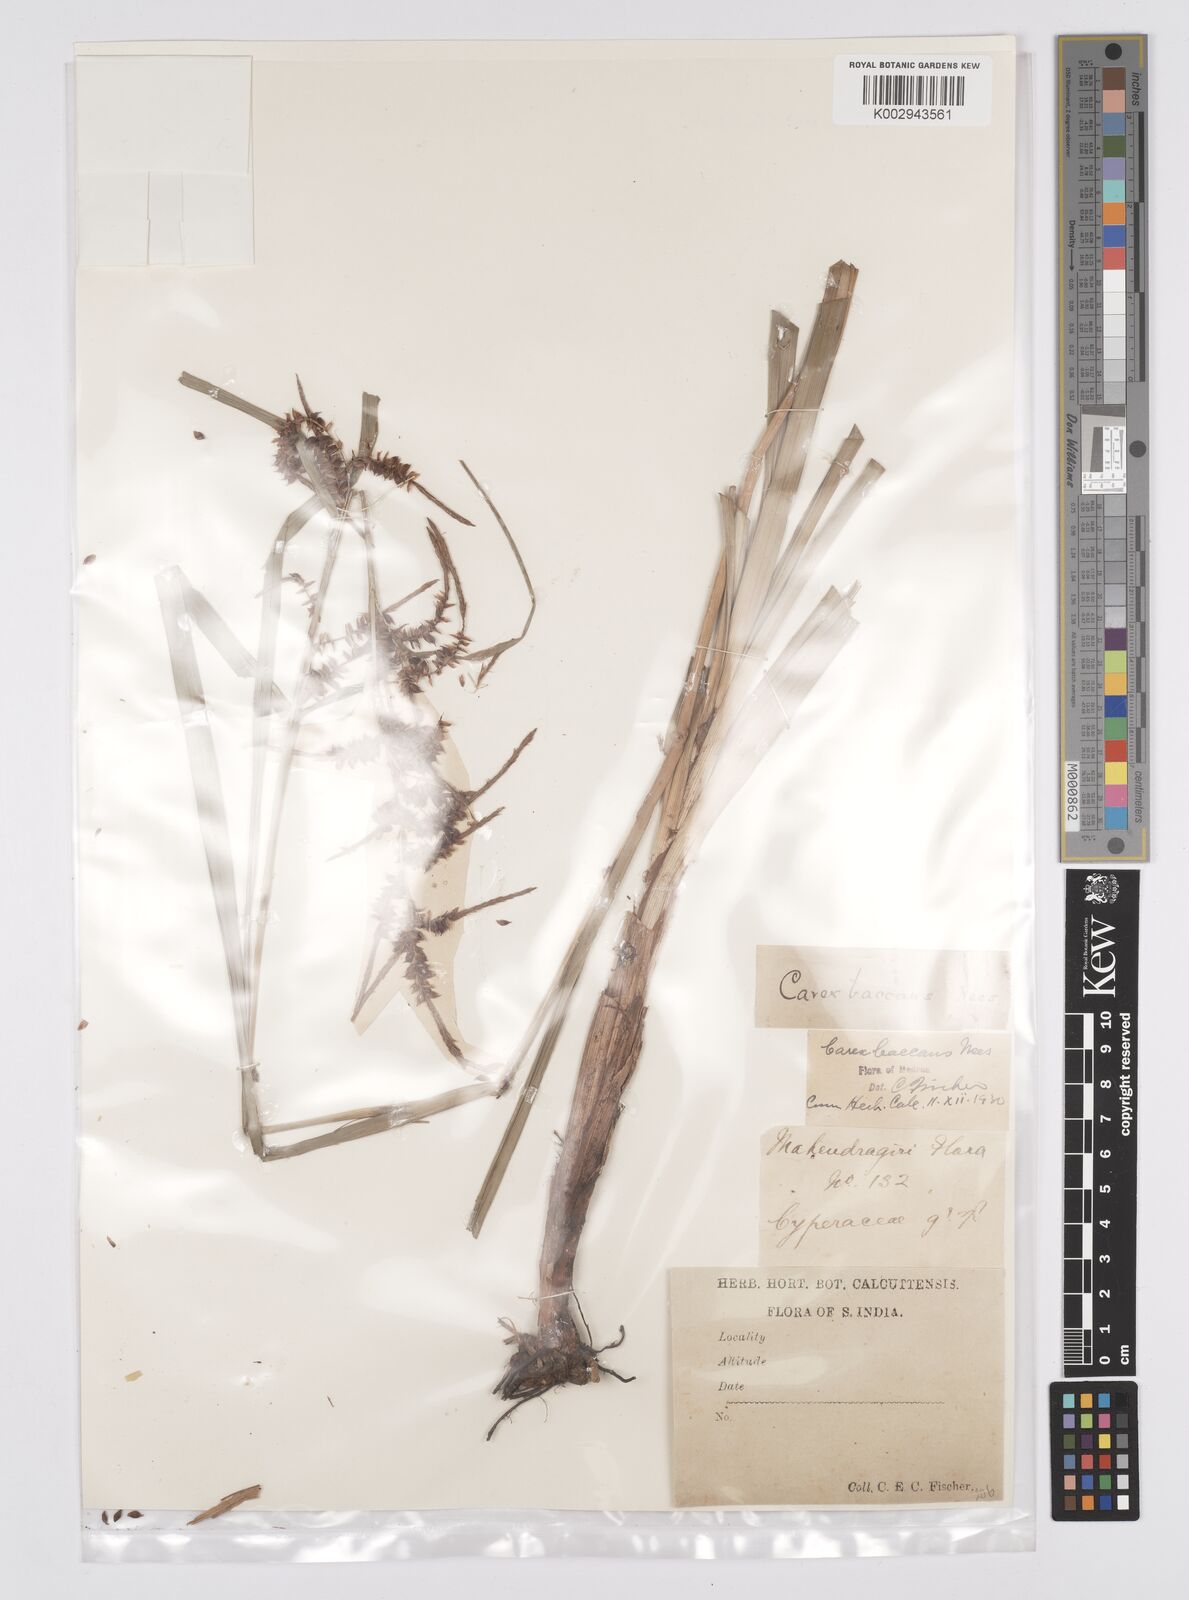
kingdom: Plantae
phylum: Tracheophyta
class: Liliopsida
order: Poales
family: Cyperaceae
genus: Carex
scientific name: Carex baccans
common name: Crimson seeded sedge
